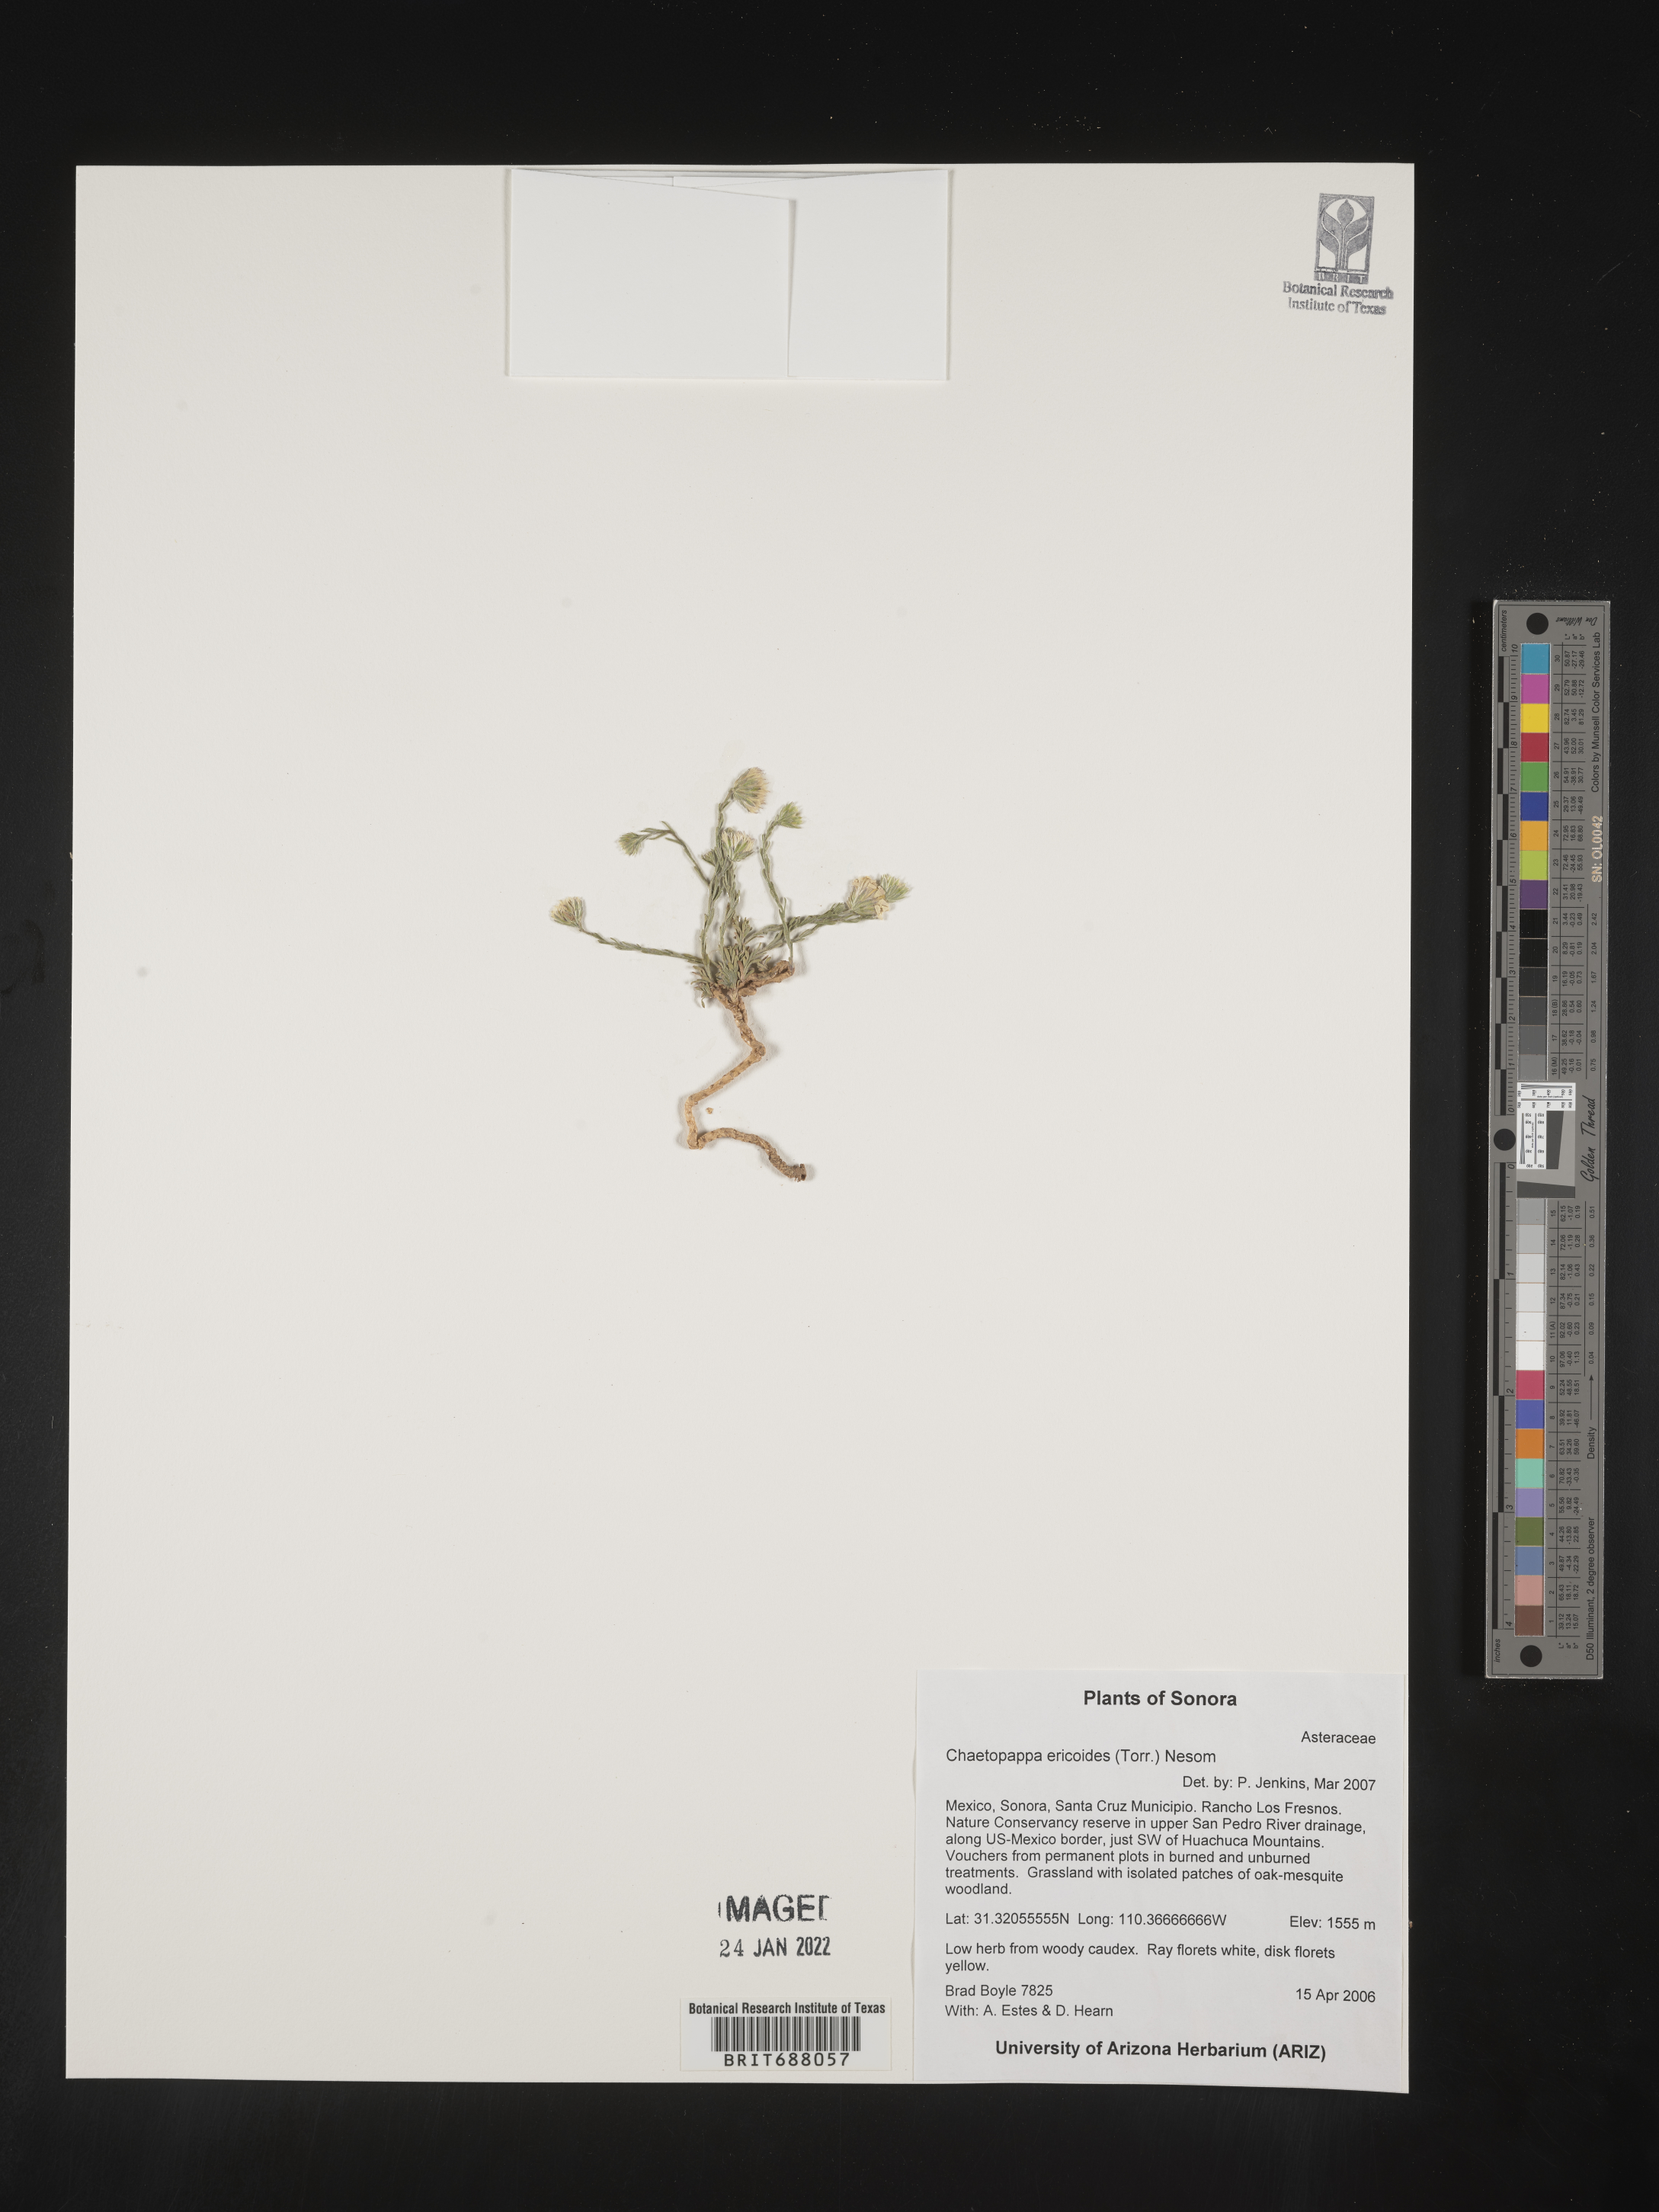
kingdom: Plantae
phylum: Tracheophyta
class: Magnoliopsida
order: Asterales
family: Asteraceae
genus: Chaetopappa
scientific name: Chaetopappa
